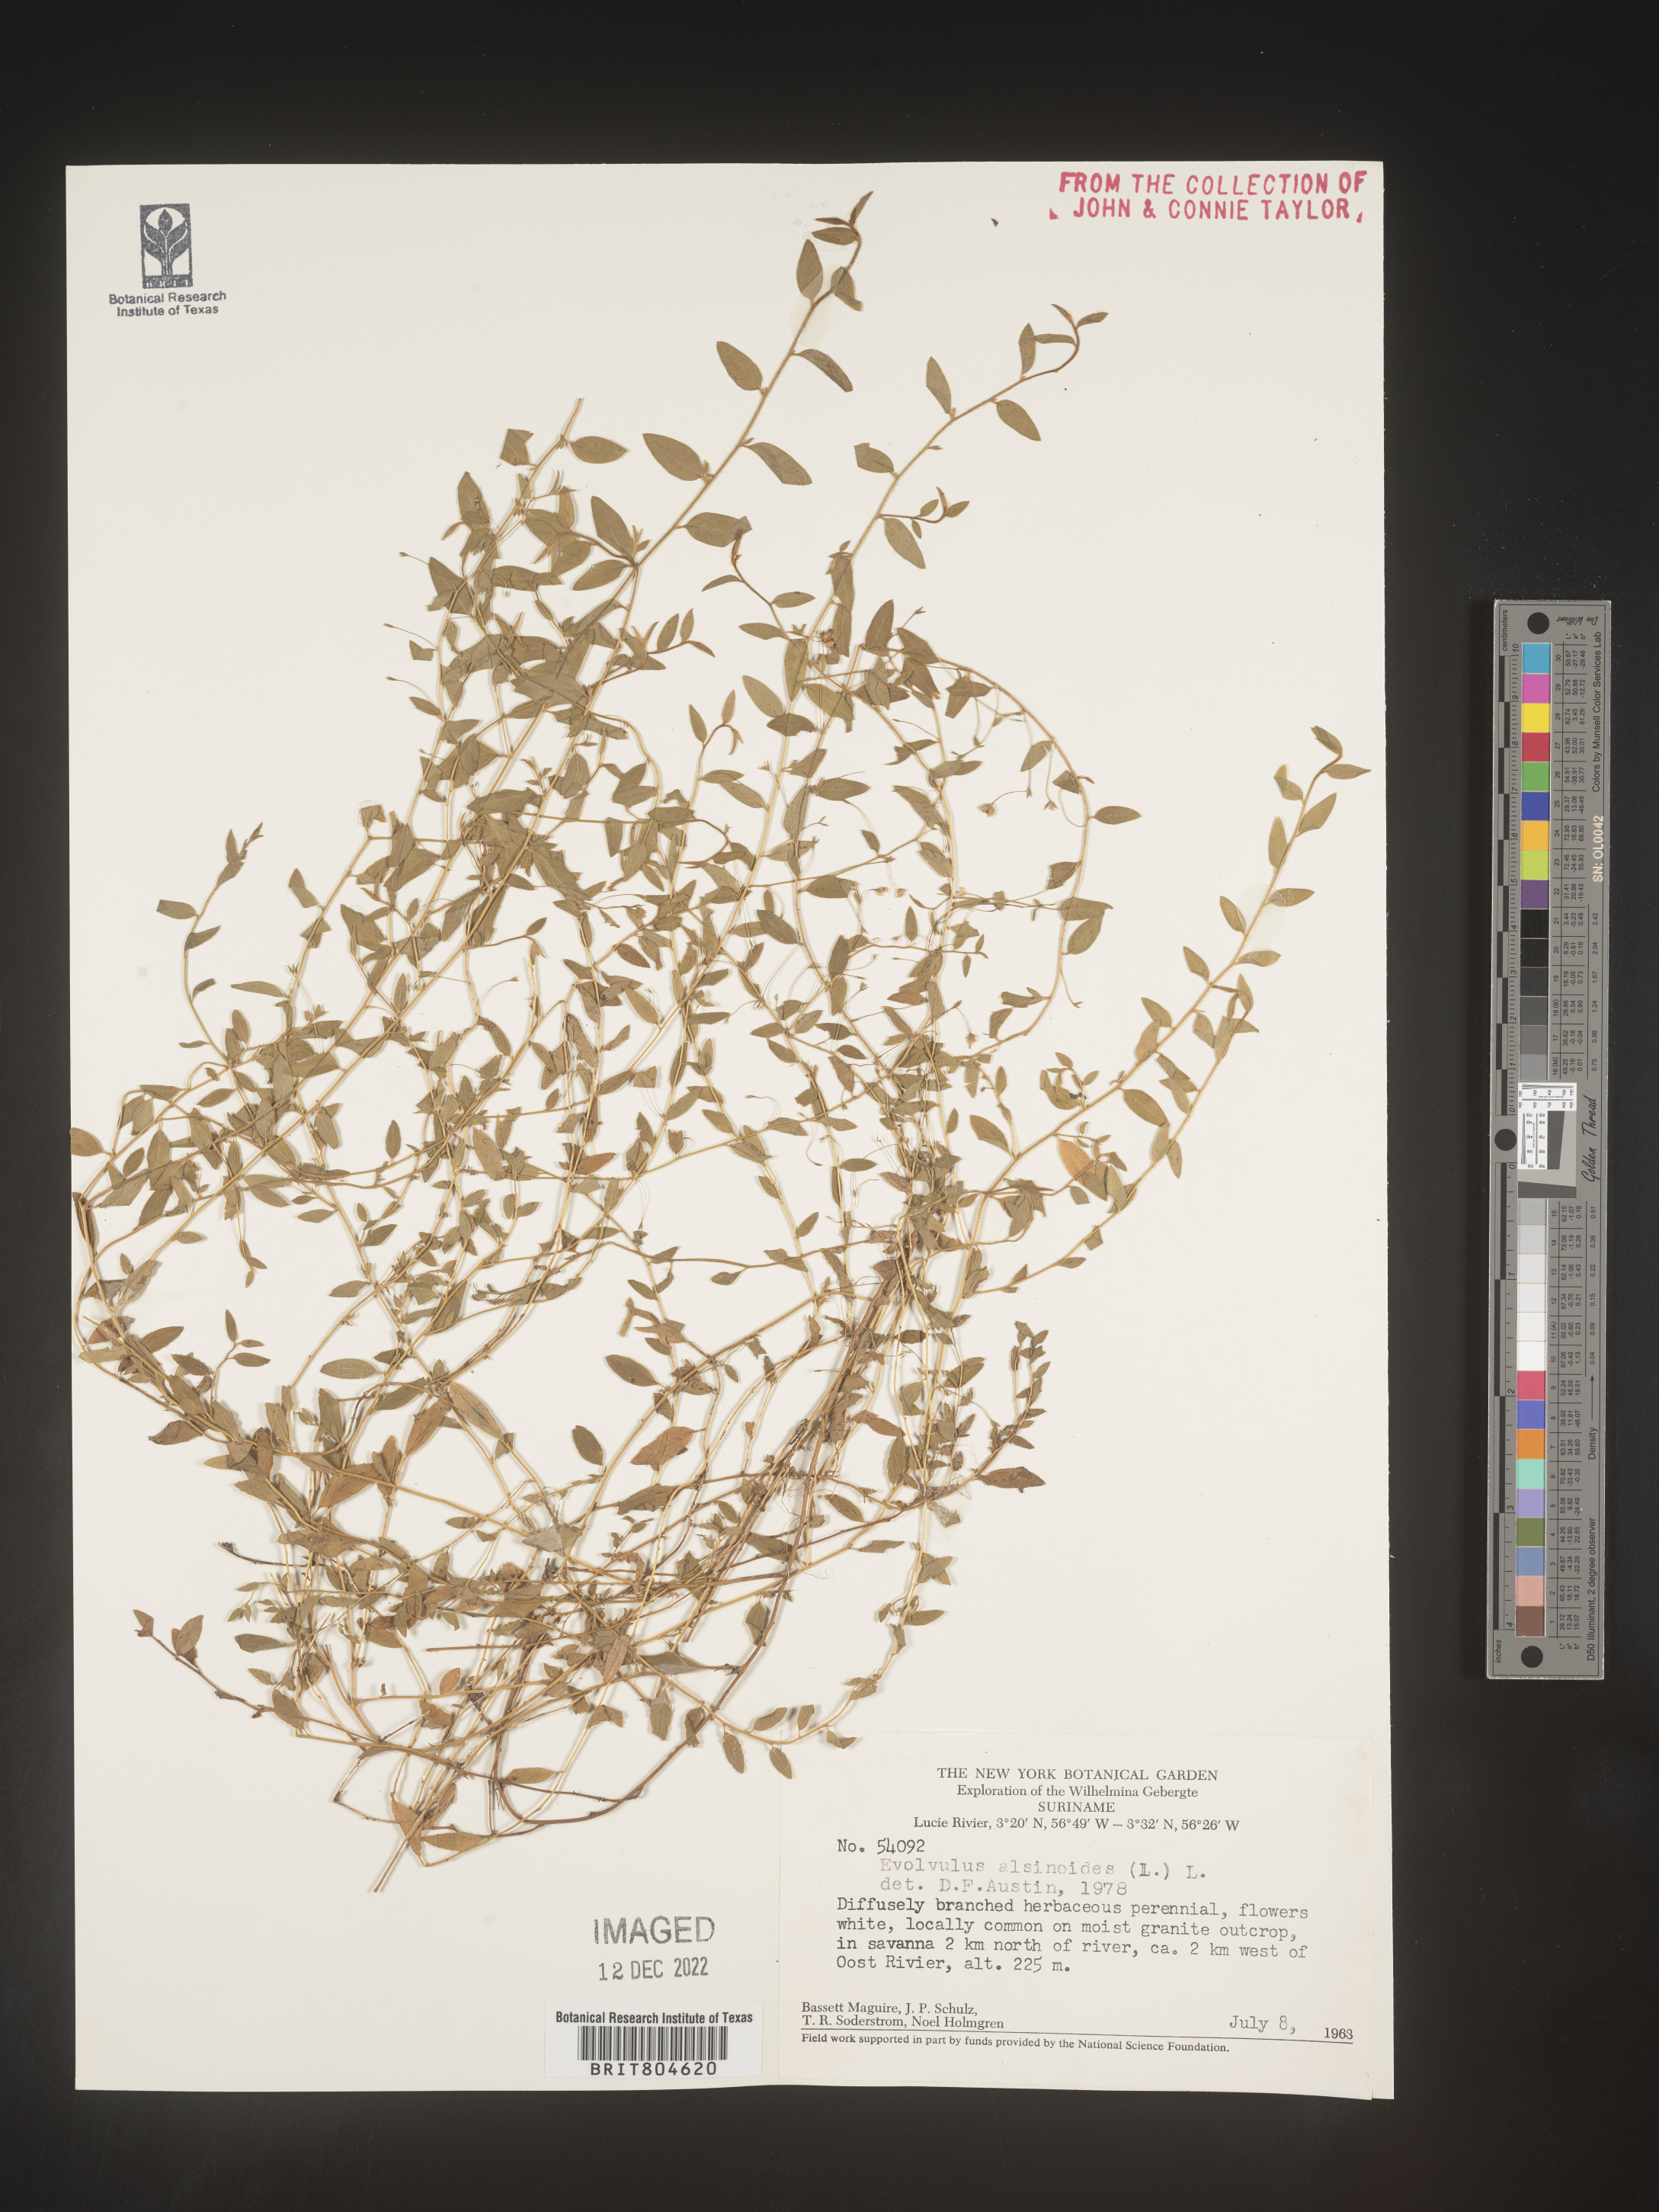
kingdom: Plantae
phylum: Tracheophyta
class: Magnoliopsida
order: Solanales
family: Convolvulaceae
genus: Evolvulus
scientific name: Evolvulus
